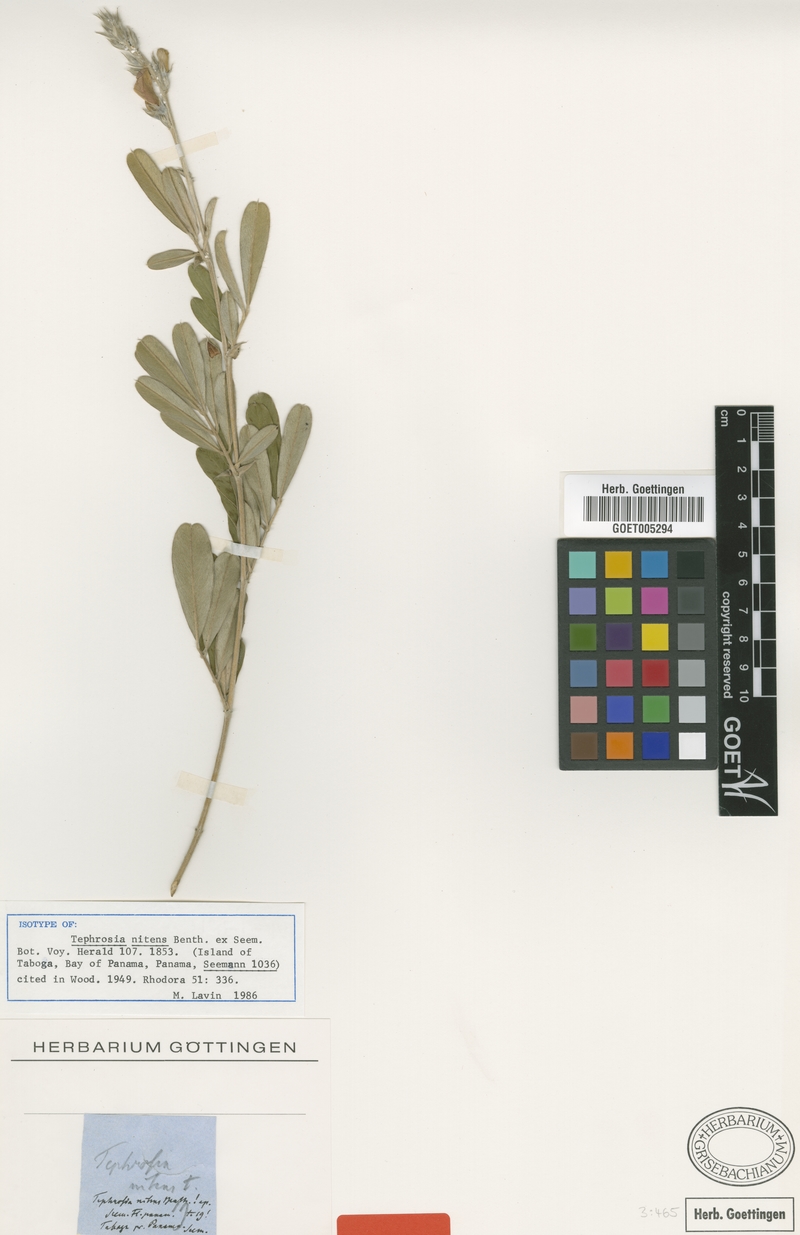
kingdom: Plantae
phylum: Tracheophyta
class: Magnoliopsida
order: Fabales
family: Fabaceae
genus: Tephrosia
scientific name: Tephrosia nitens
